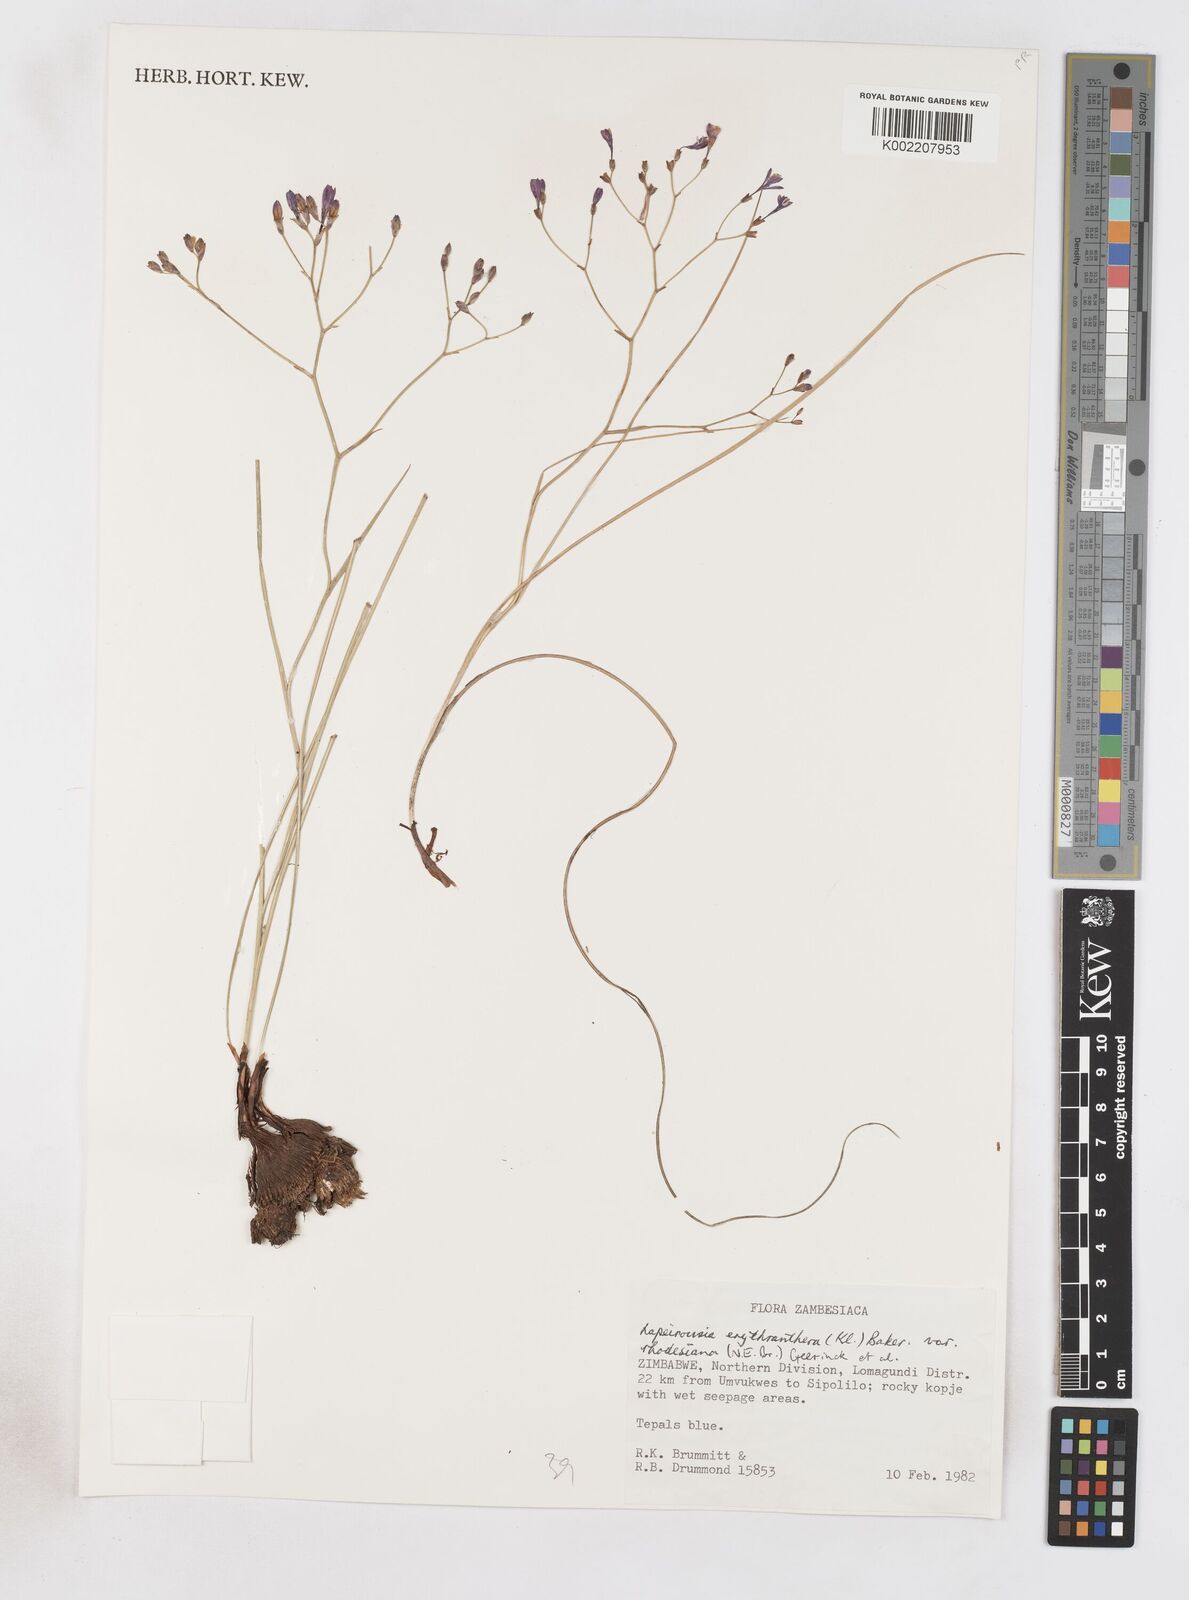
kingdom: Plantae
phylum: Tracheophyta
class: Liliopsida
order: Asparagales
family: Iridaceae
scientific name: Iridaceae
